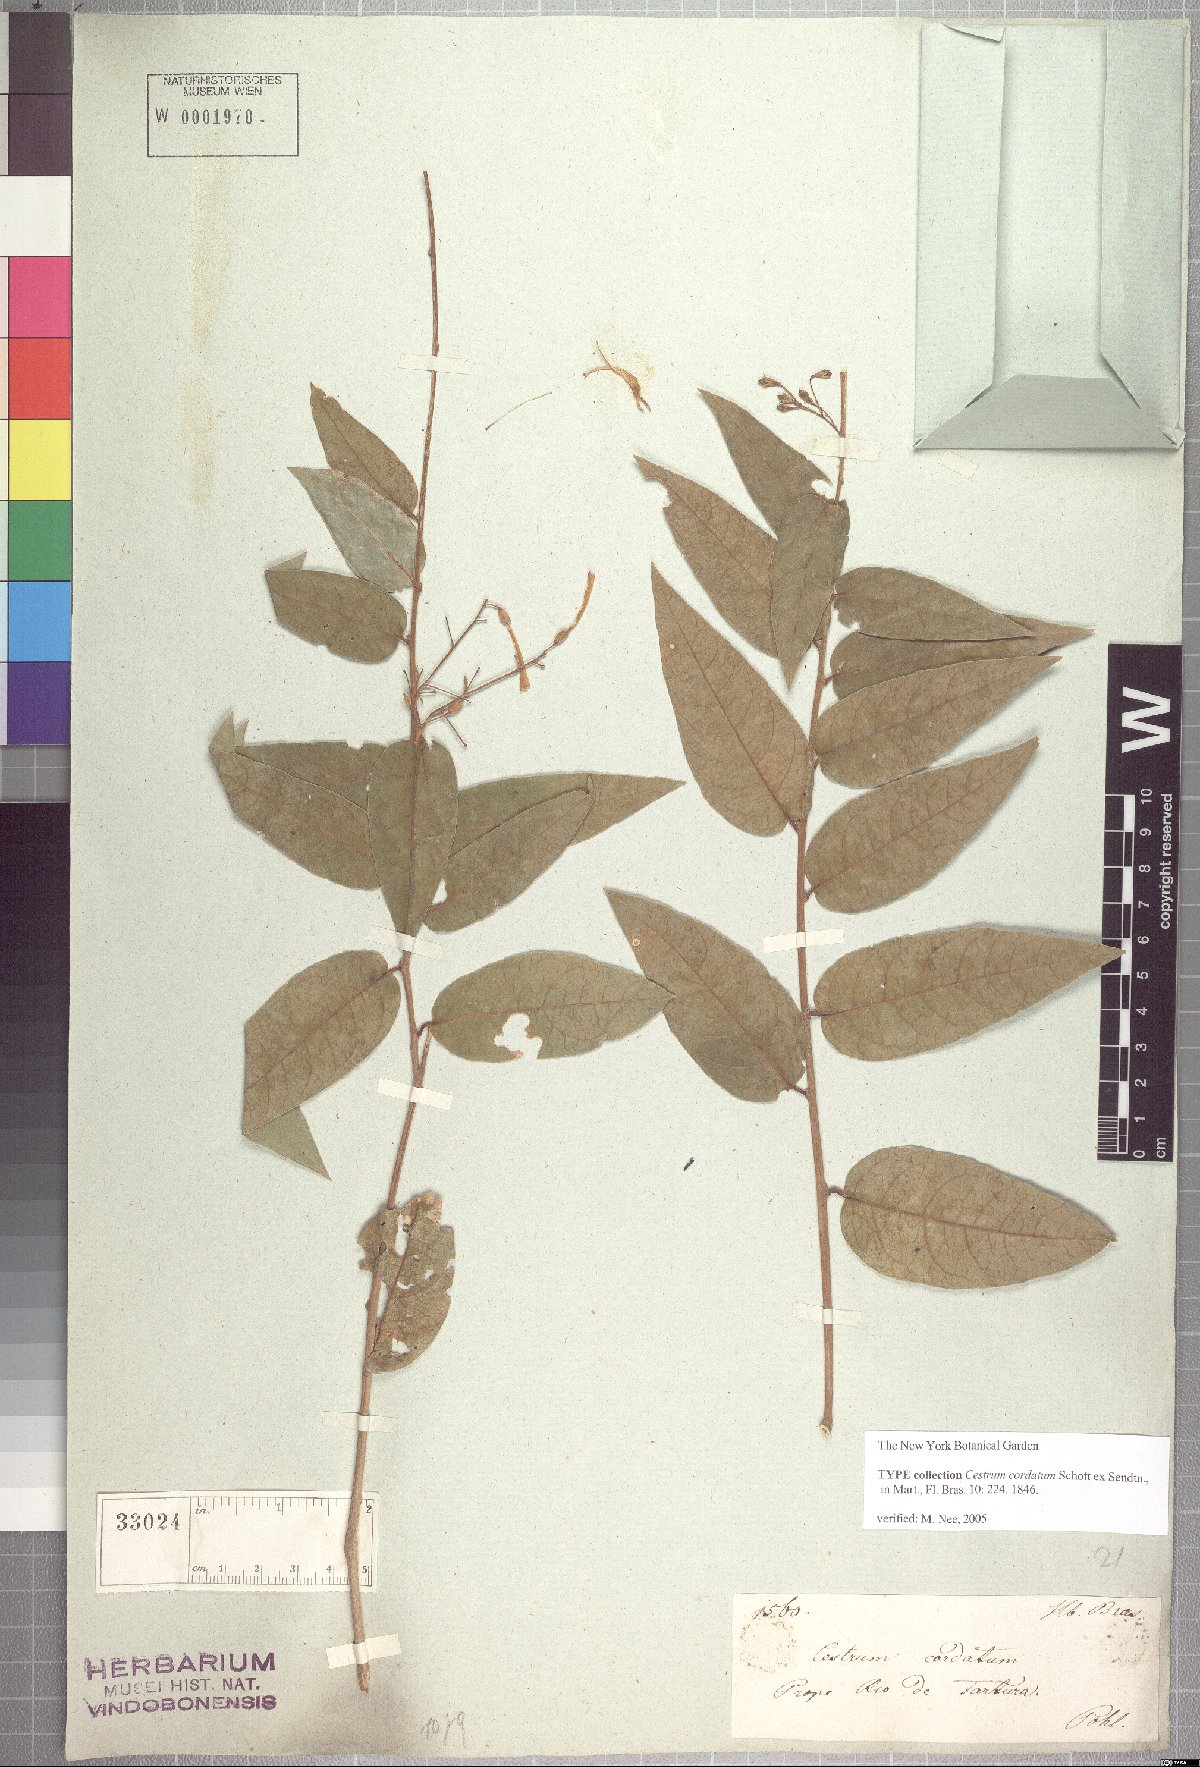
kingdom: Plantae
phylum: Tracheophyta
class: Magnoliopsida
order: Solanales
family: Solanaceae
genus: Cestrum
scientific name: Cestrum cordatum
